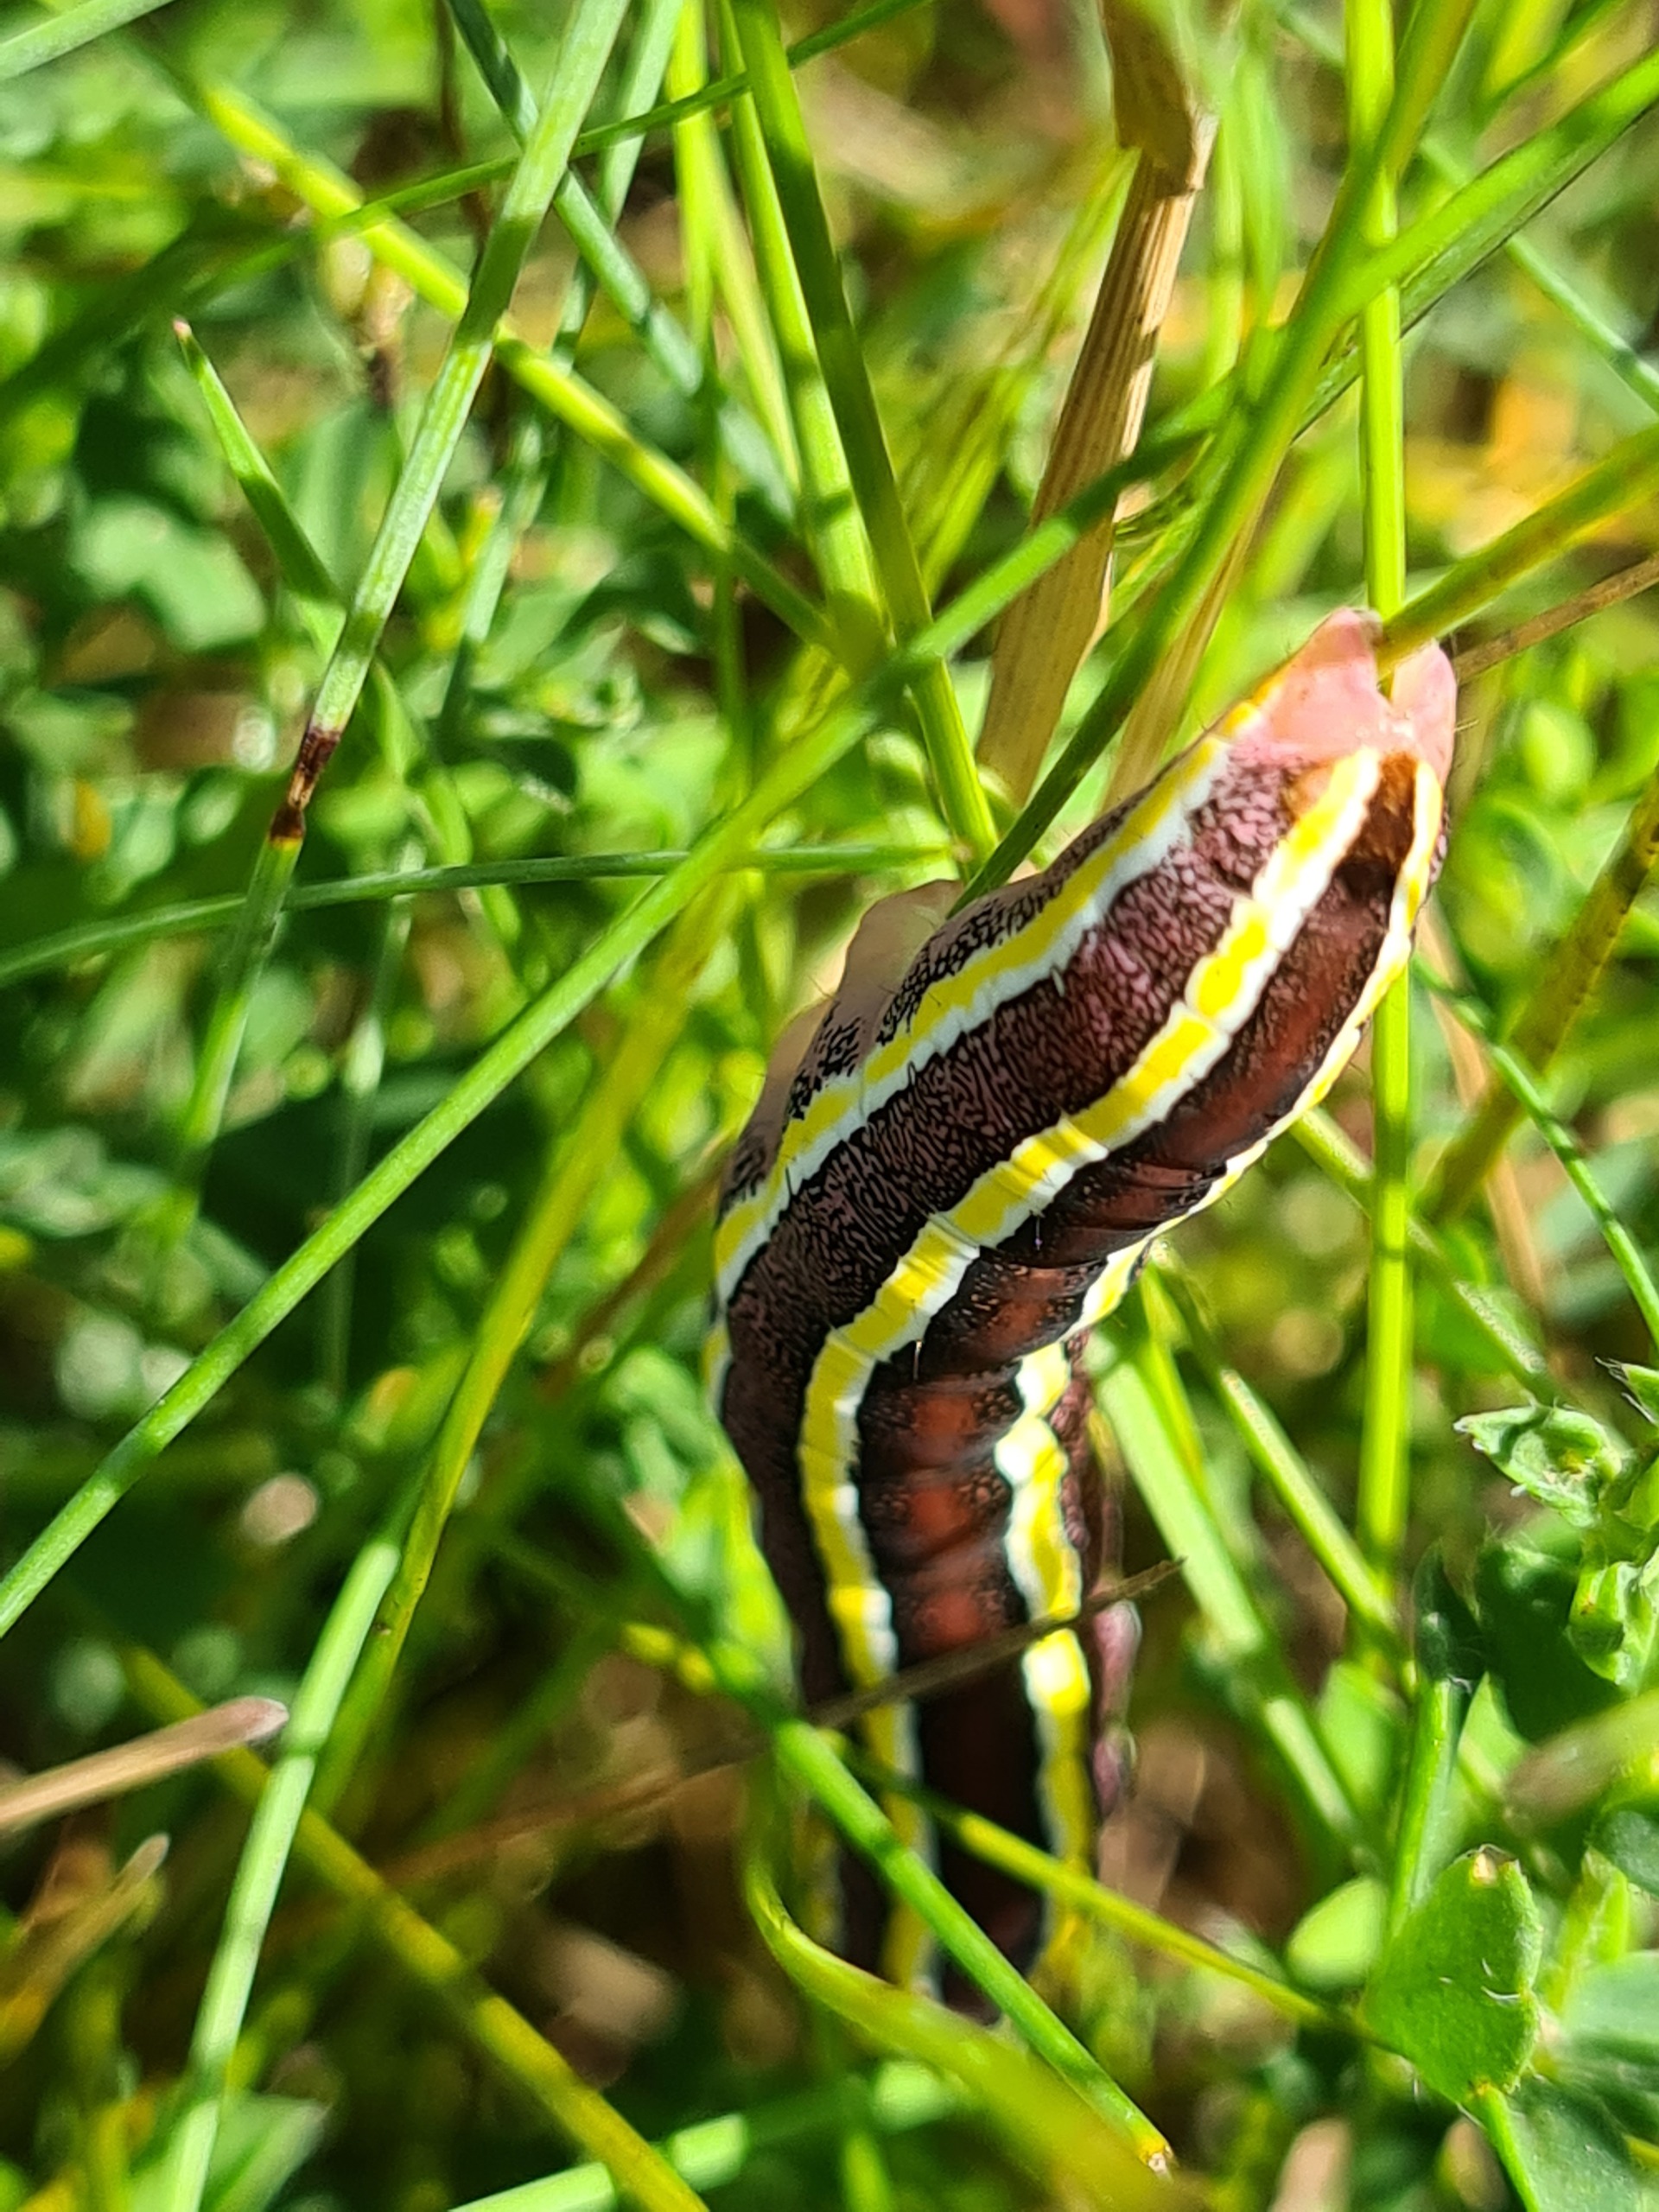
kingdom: Animalia
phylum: Arthropoda
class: Insecta
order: Lepidoptera
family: Noctuidae
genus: Ceramica
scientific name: Ceramica pisi
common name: Ærteugle
